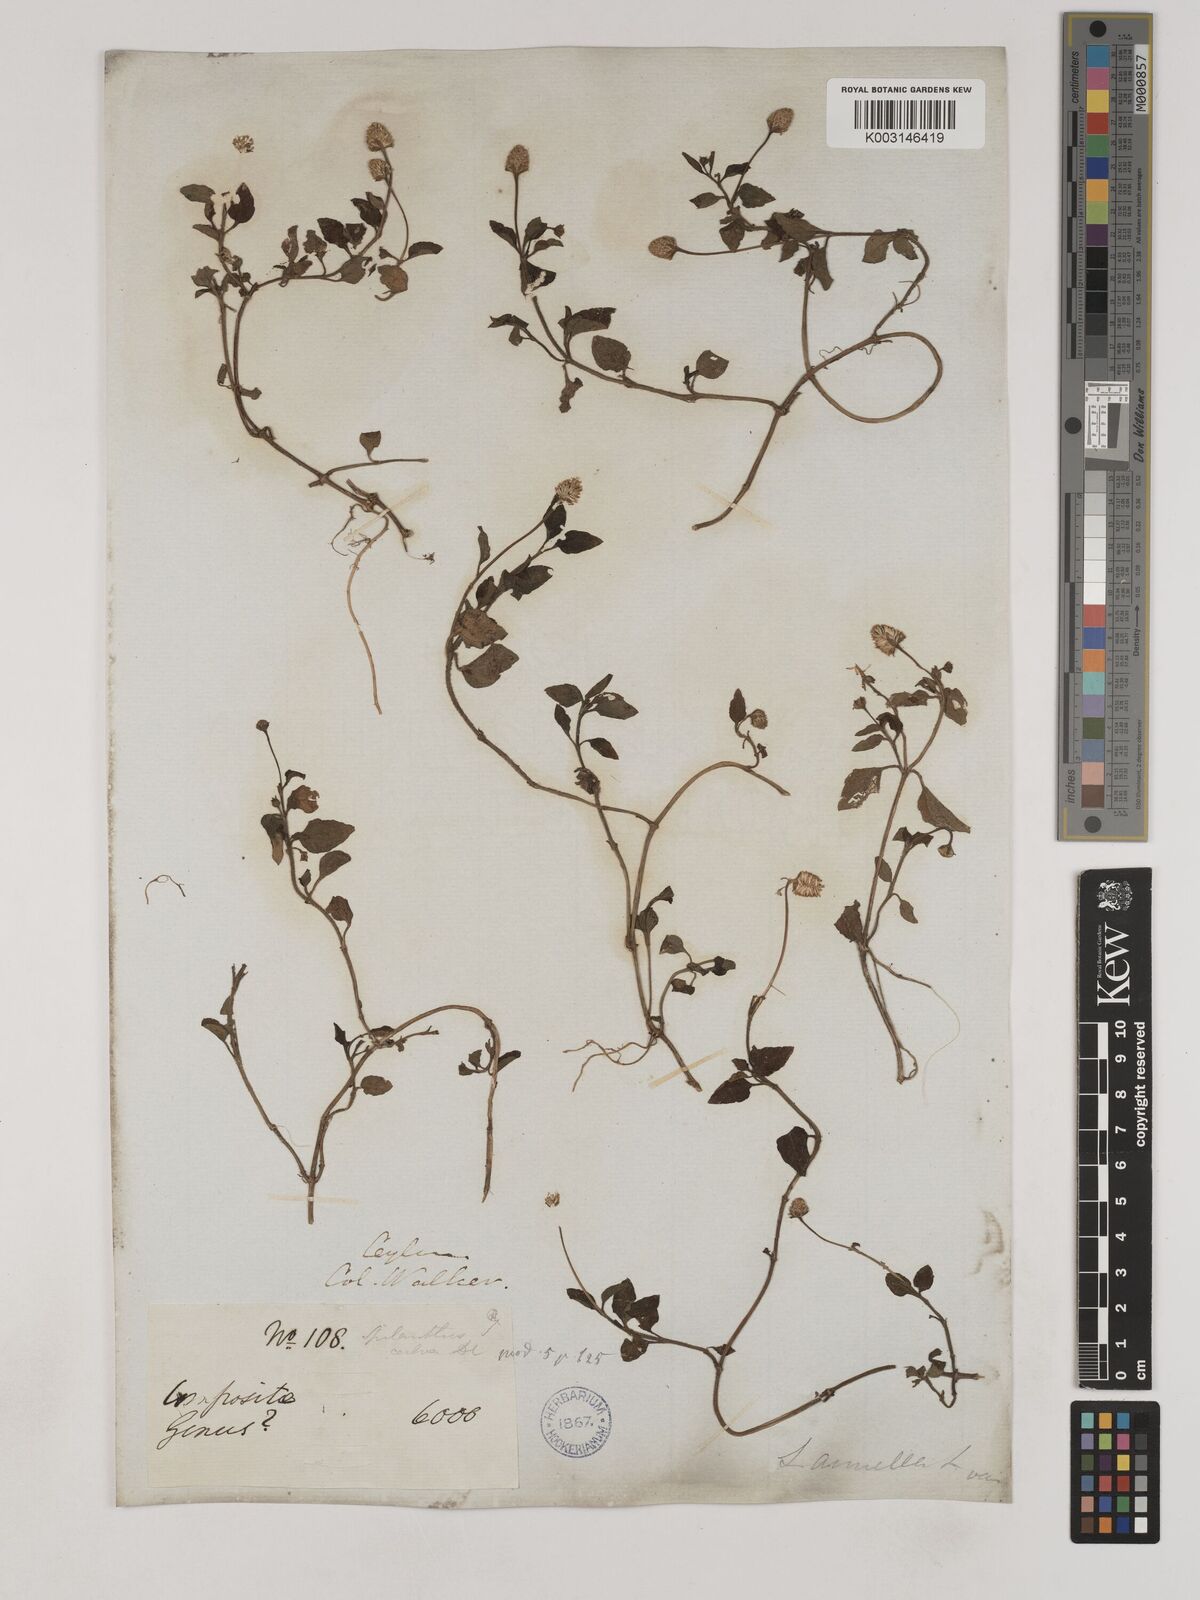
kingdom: Plantae
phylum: Tracheophyta
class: Magnoliopsida
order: Asterales
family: Asteraceae
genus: Acmella
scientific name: Acmella calva
